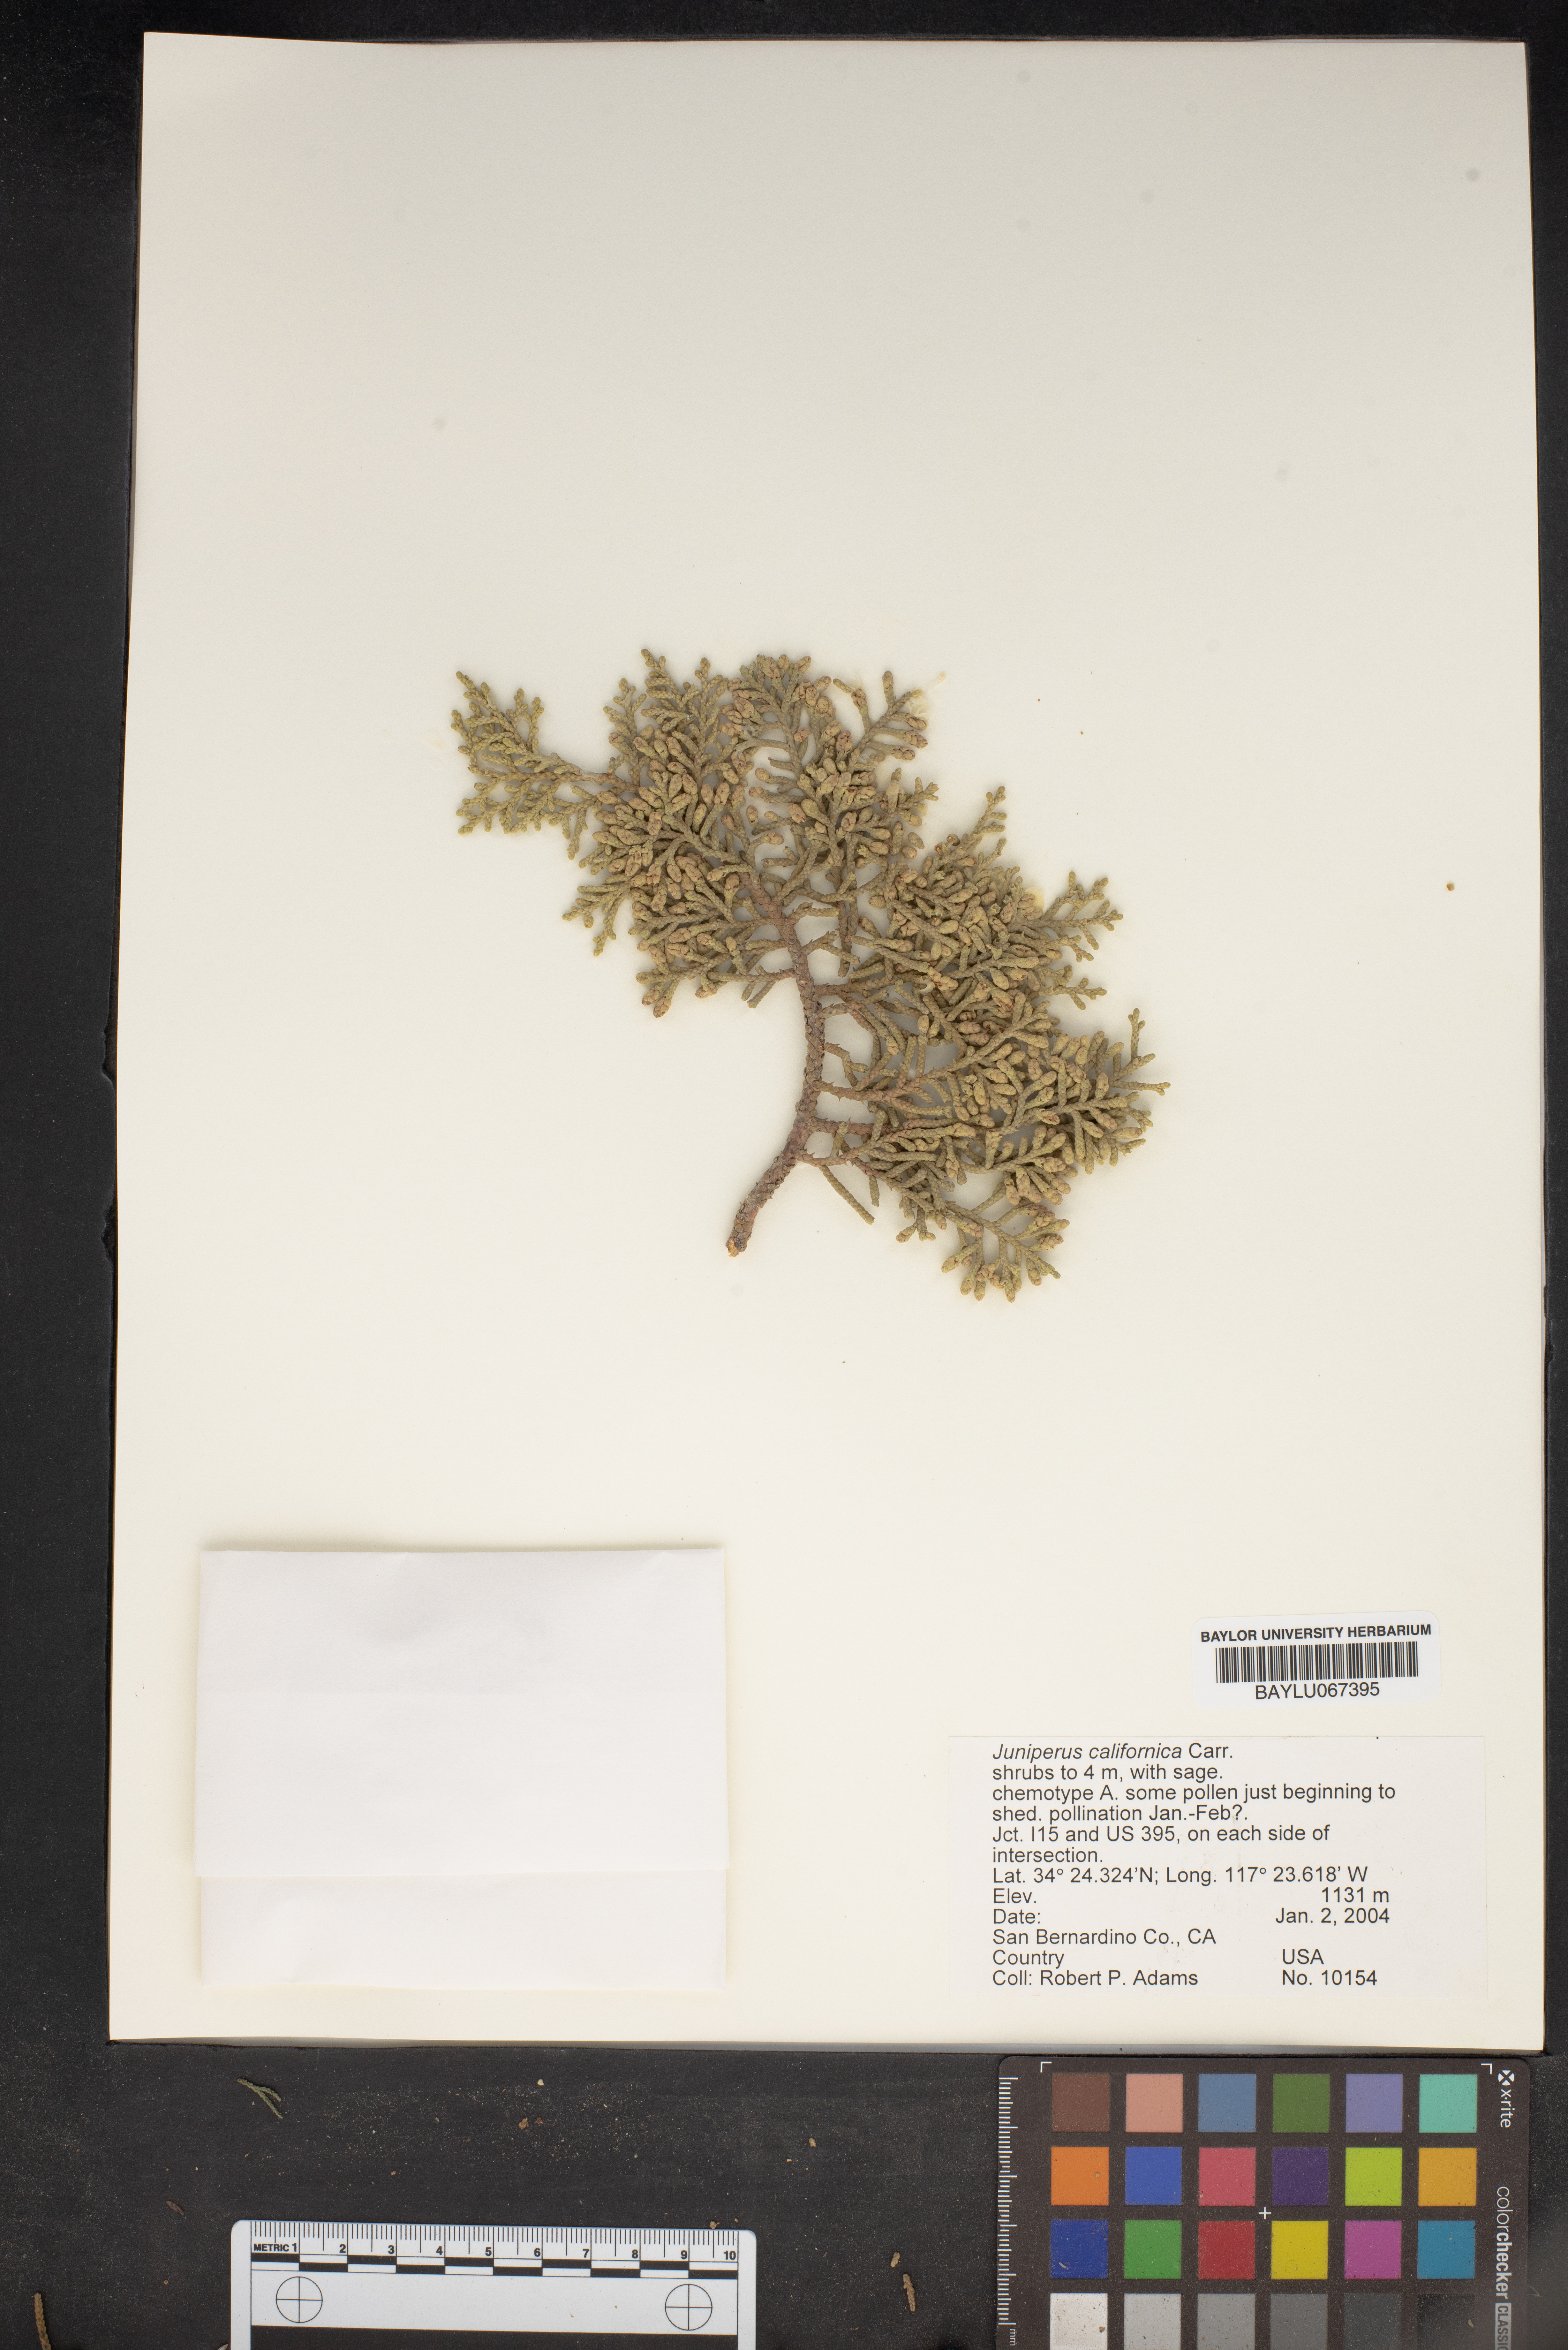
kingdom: Plantae
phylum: Tracheophyta
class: Pinopsida
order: Pinales
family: Cupressaceae
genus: Juniperus
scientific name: Juniperus californica
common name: California juniper
